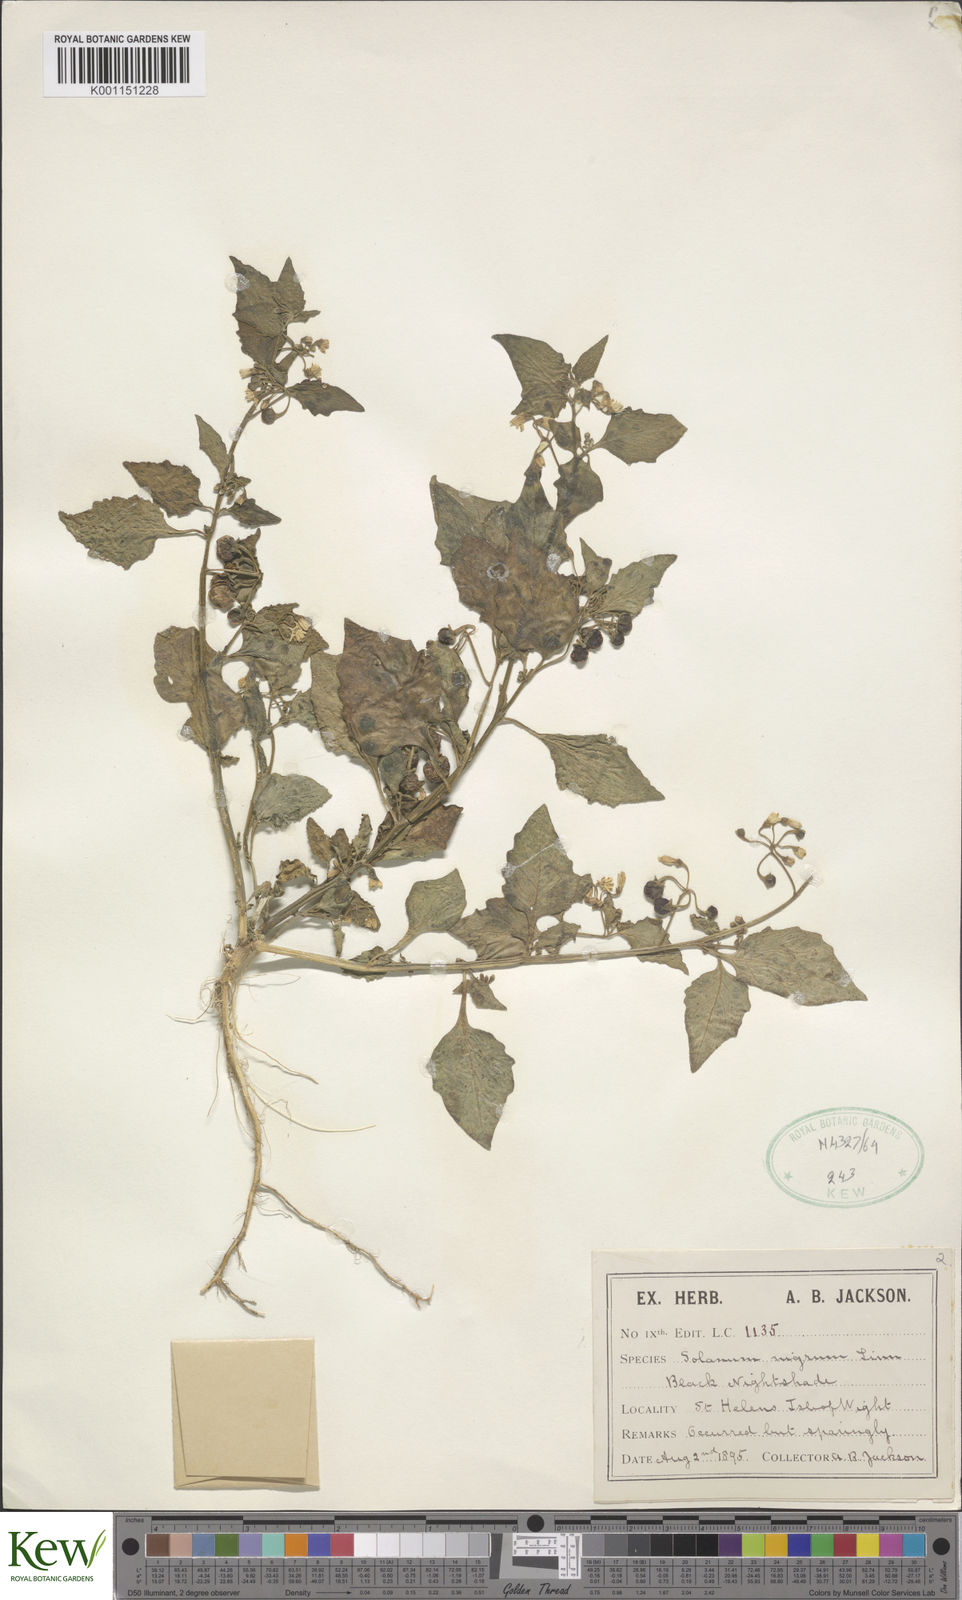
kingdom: Plantae
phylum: Tracheophyta
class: Magnoliopsida
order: Solanales
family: Solanaceae
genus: Solanum
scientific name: Solanum nigrum
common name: Black nightshade
